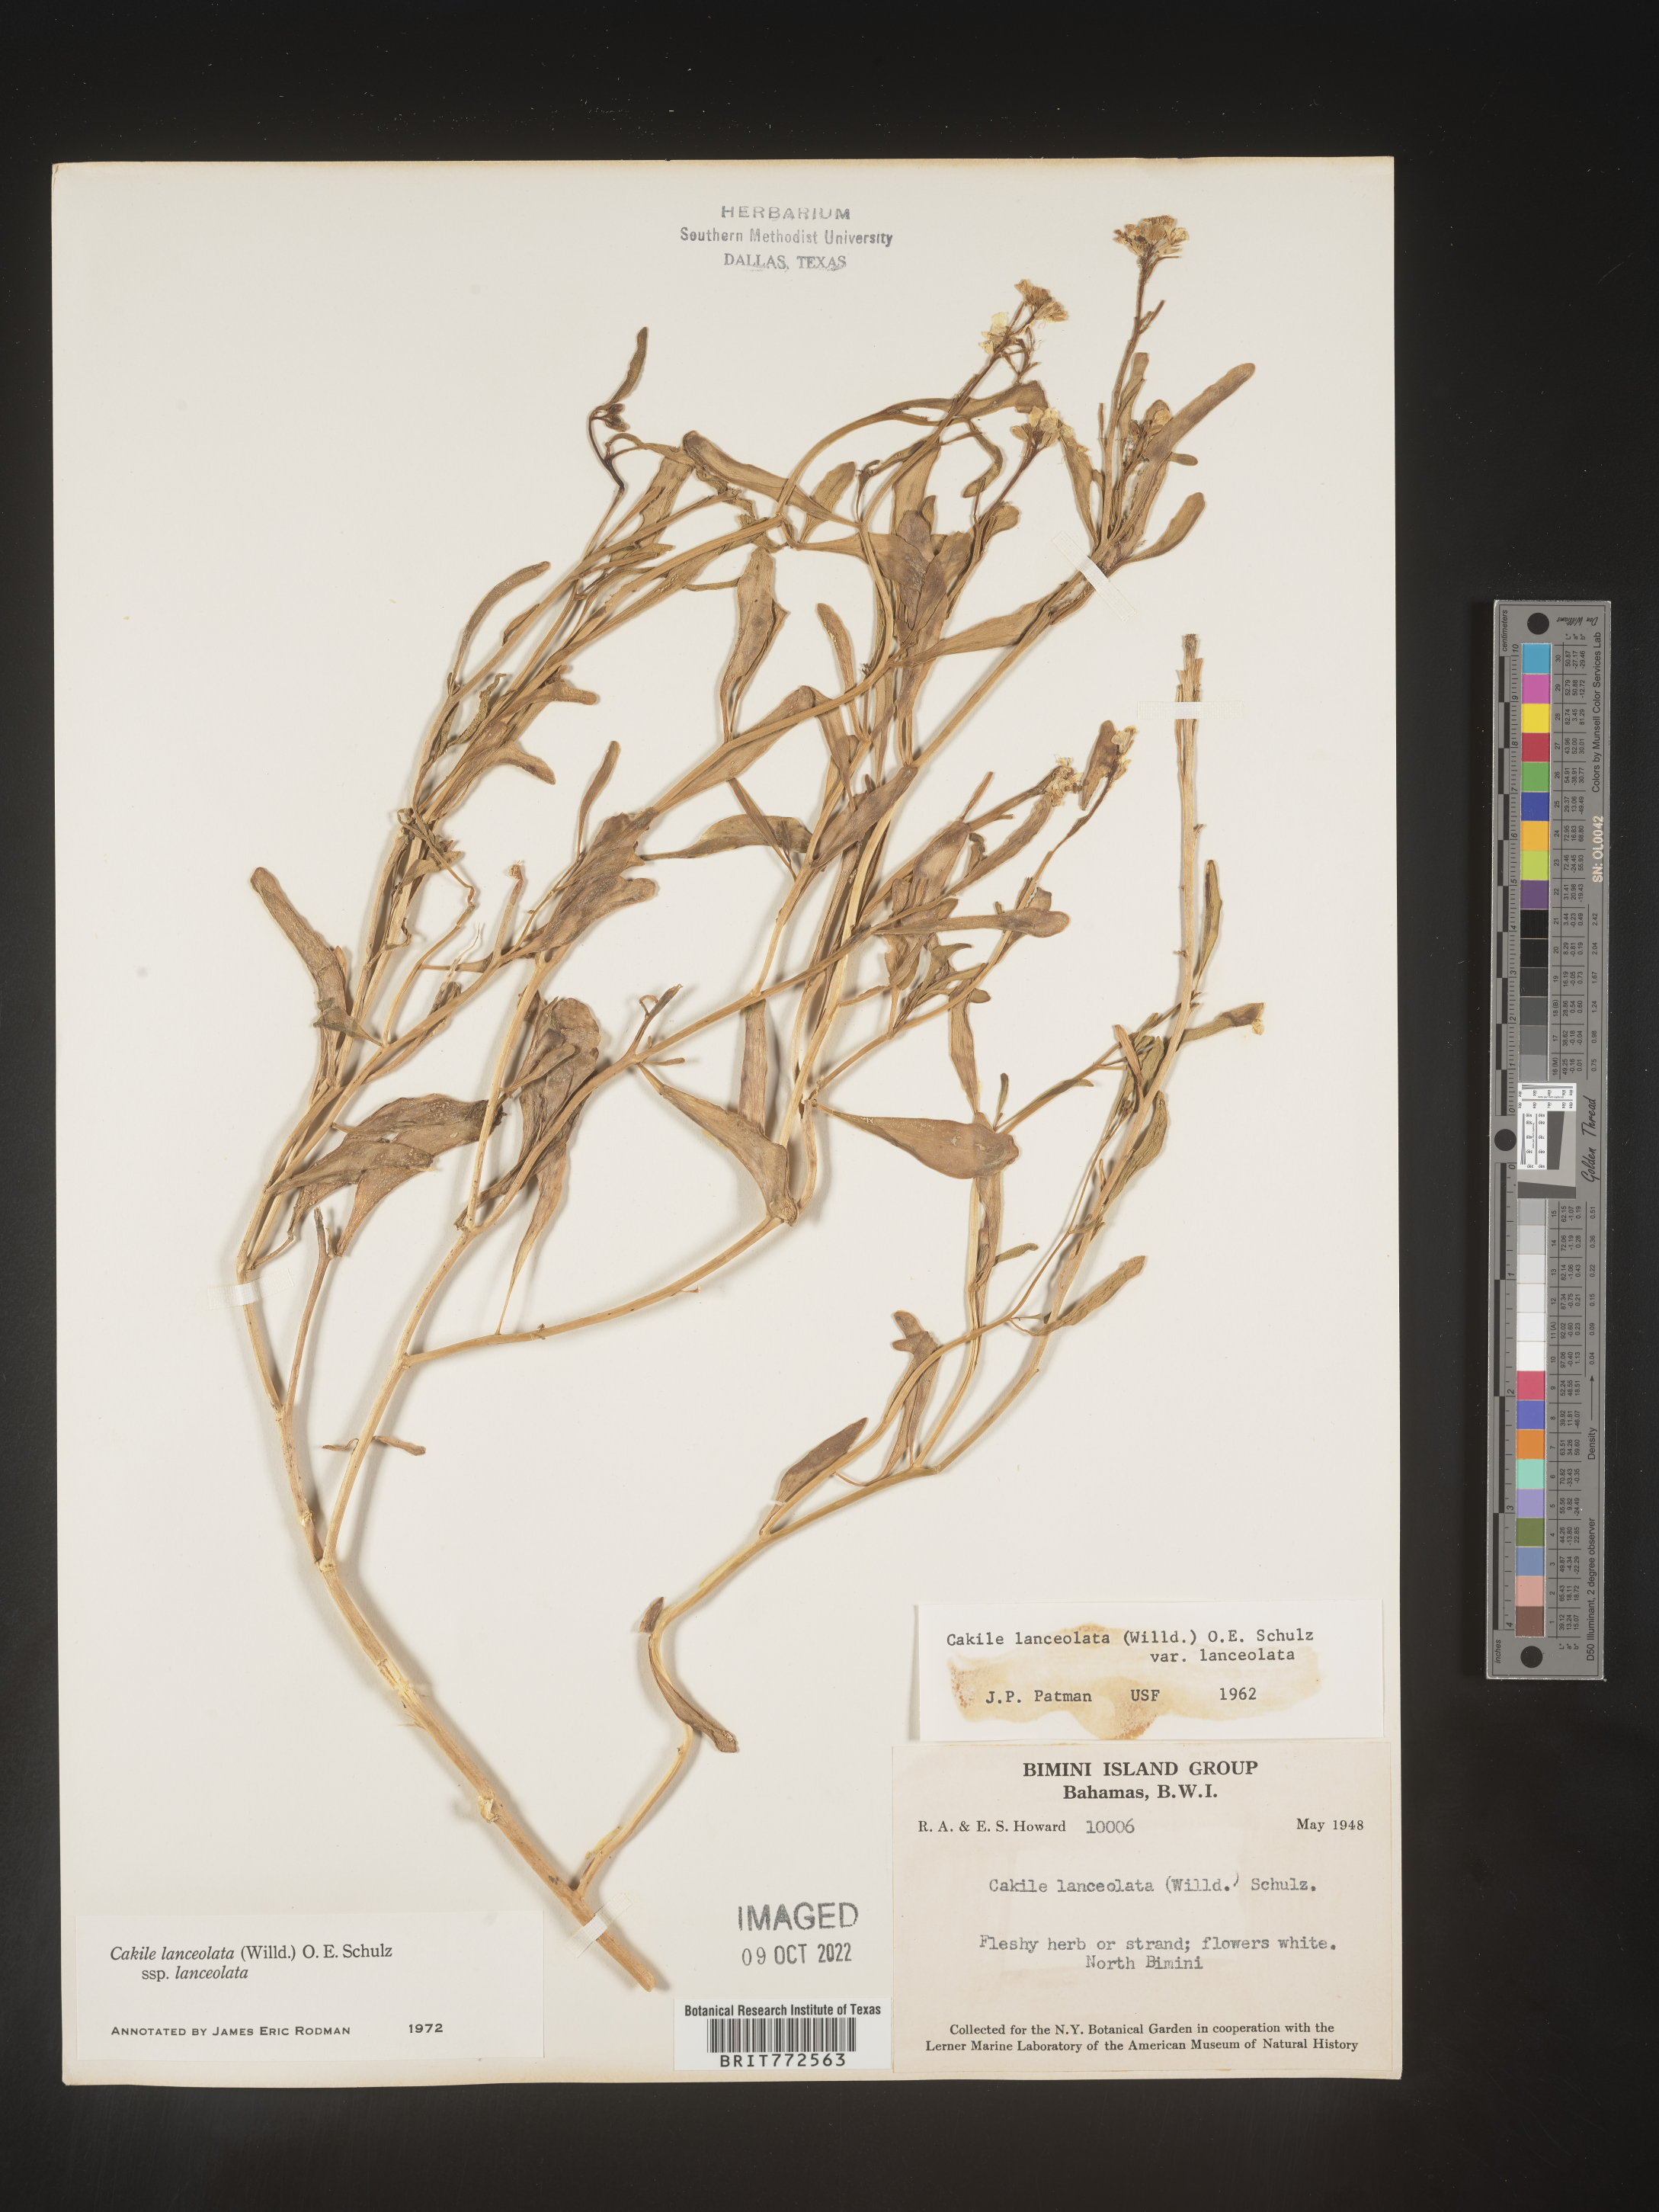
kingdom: Plantae
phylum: Tracheophyta
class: Magnoliopsida
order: Brassicales
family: Brassicaceae
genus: Cakile
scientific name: Cakile
